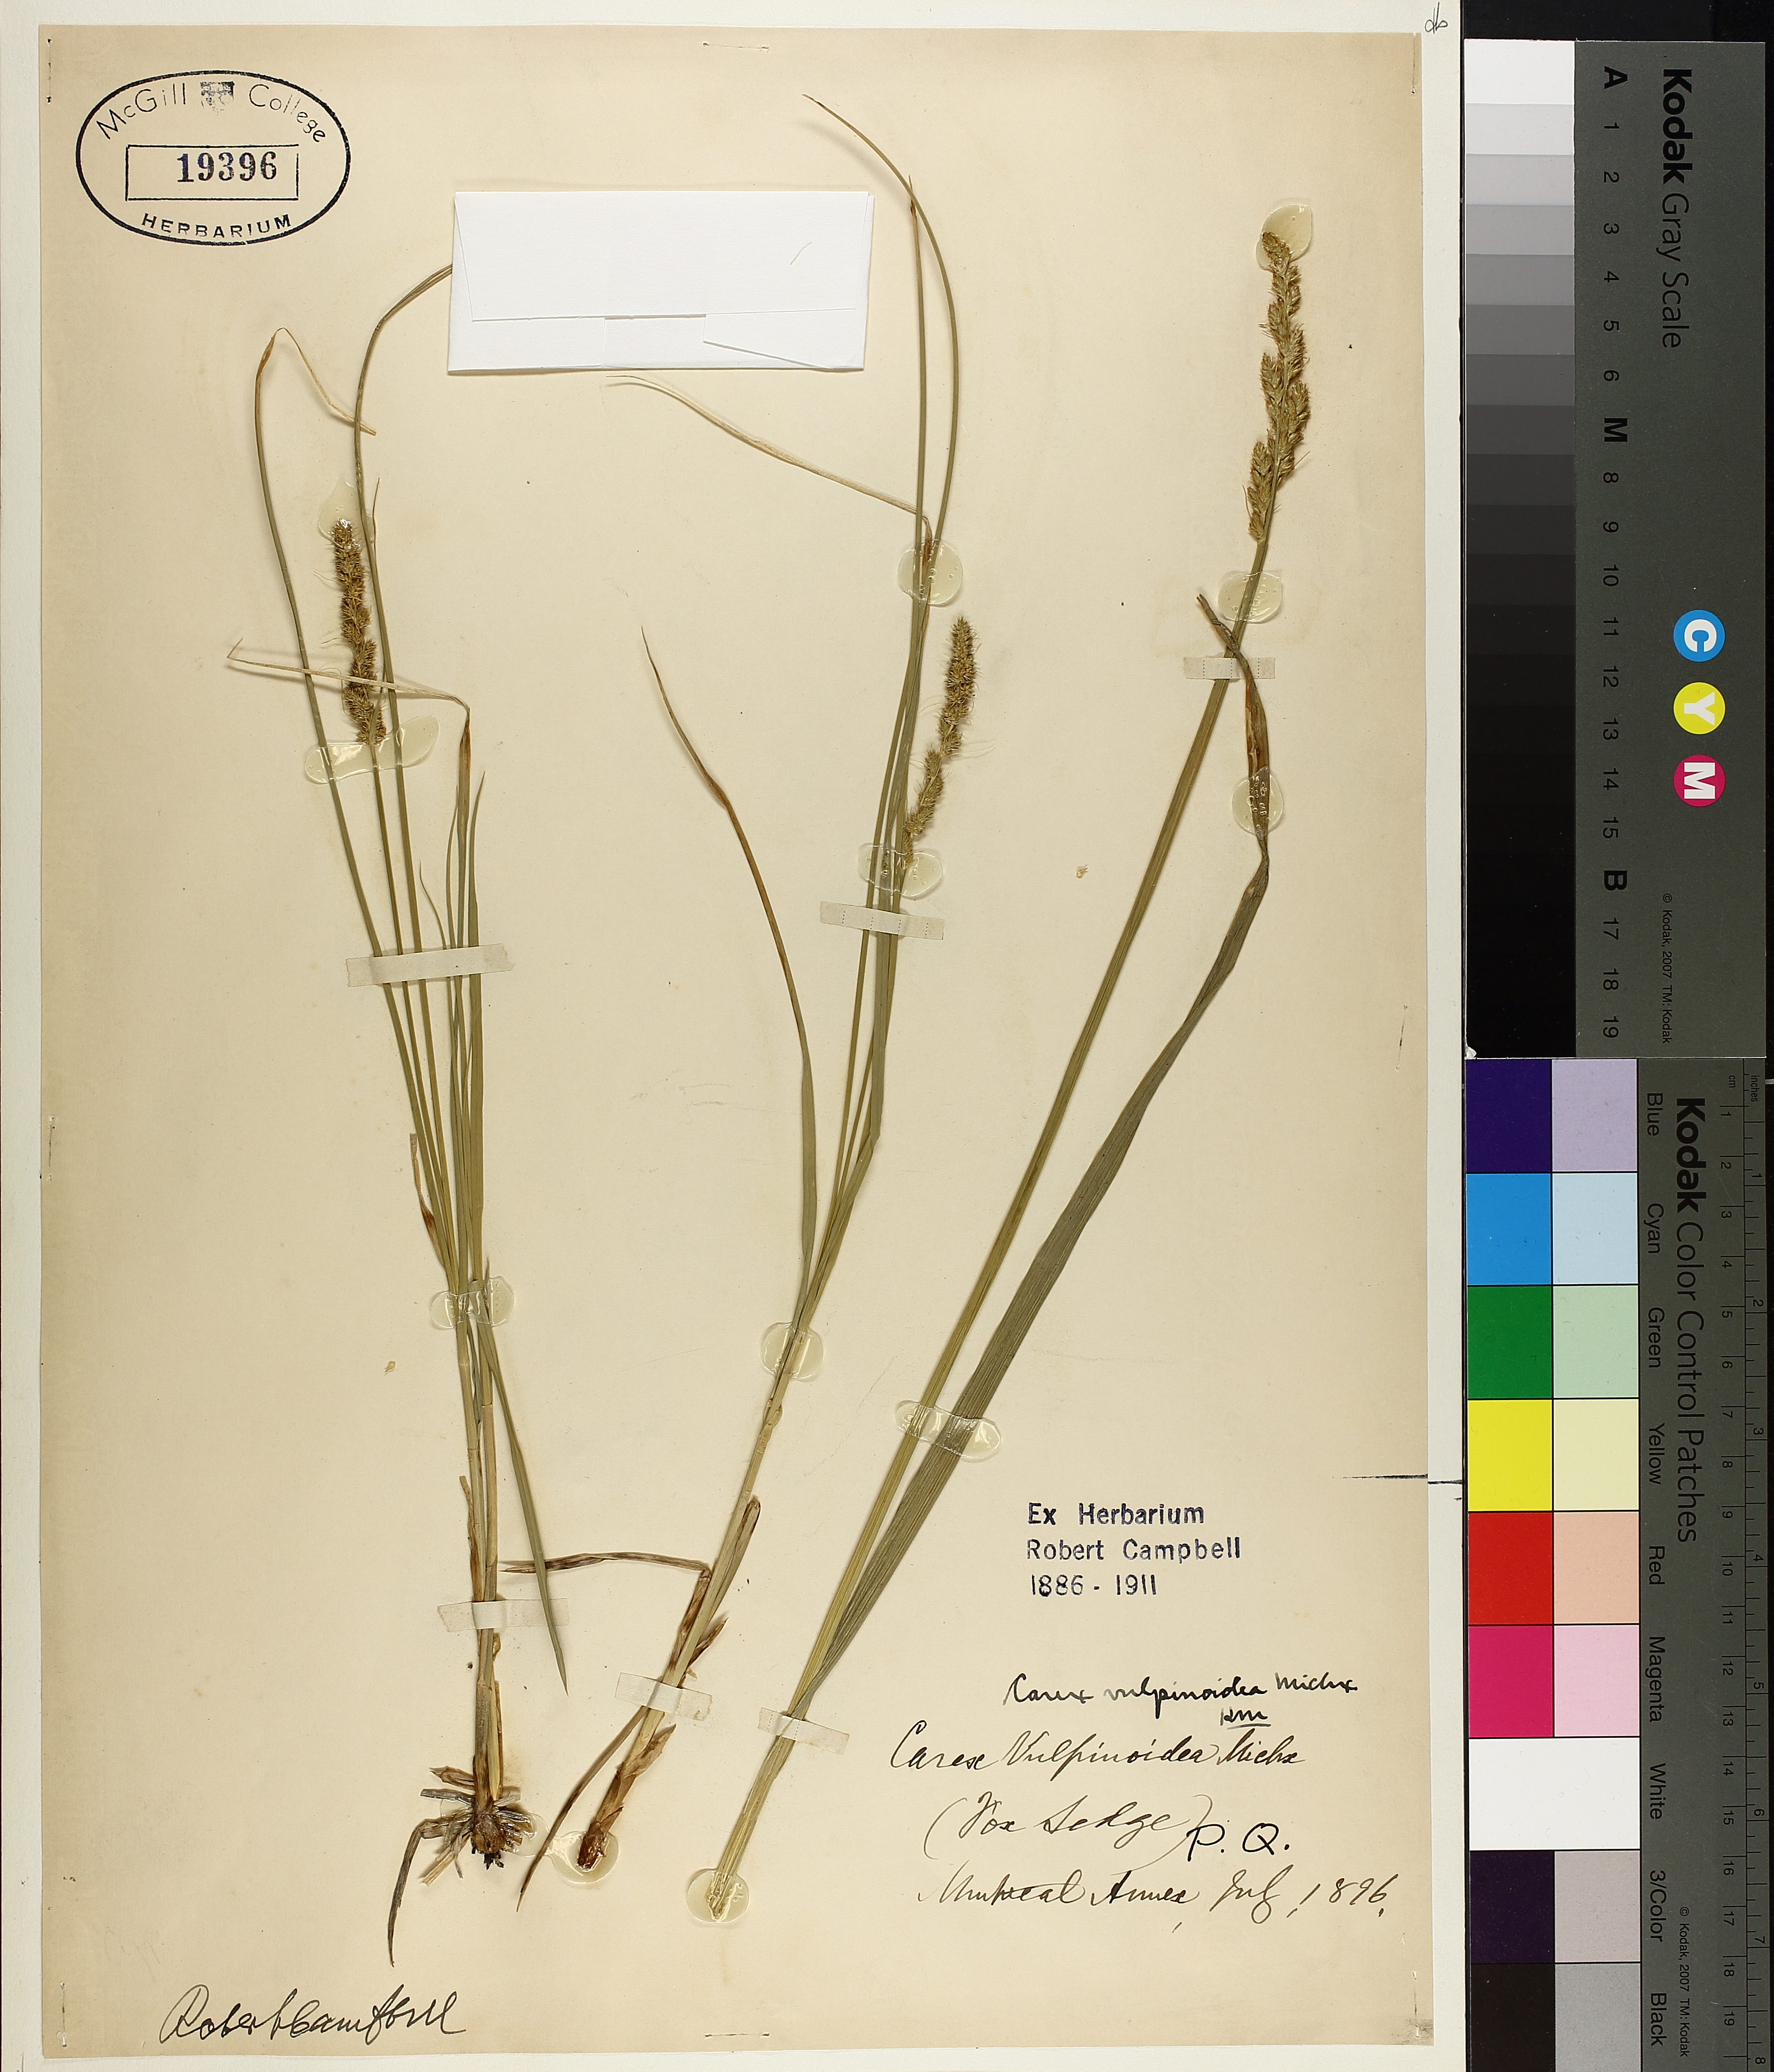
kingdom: Plantae
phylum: Tracheophyta
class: Liliopsida
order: Poales
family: Cyperaceae
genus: Carex
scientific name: Carex vulpinoidea
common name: American fox-sedge
